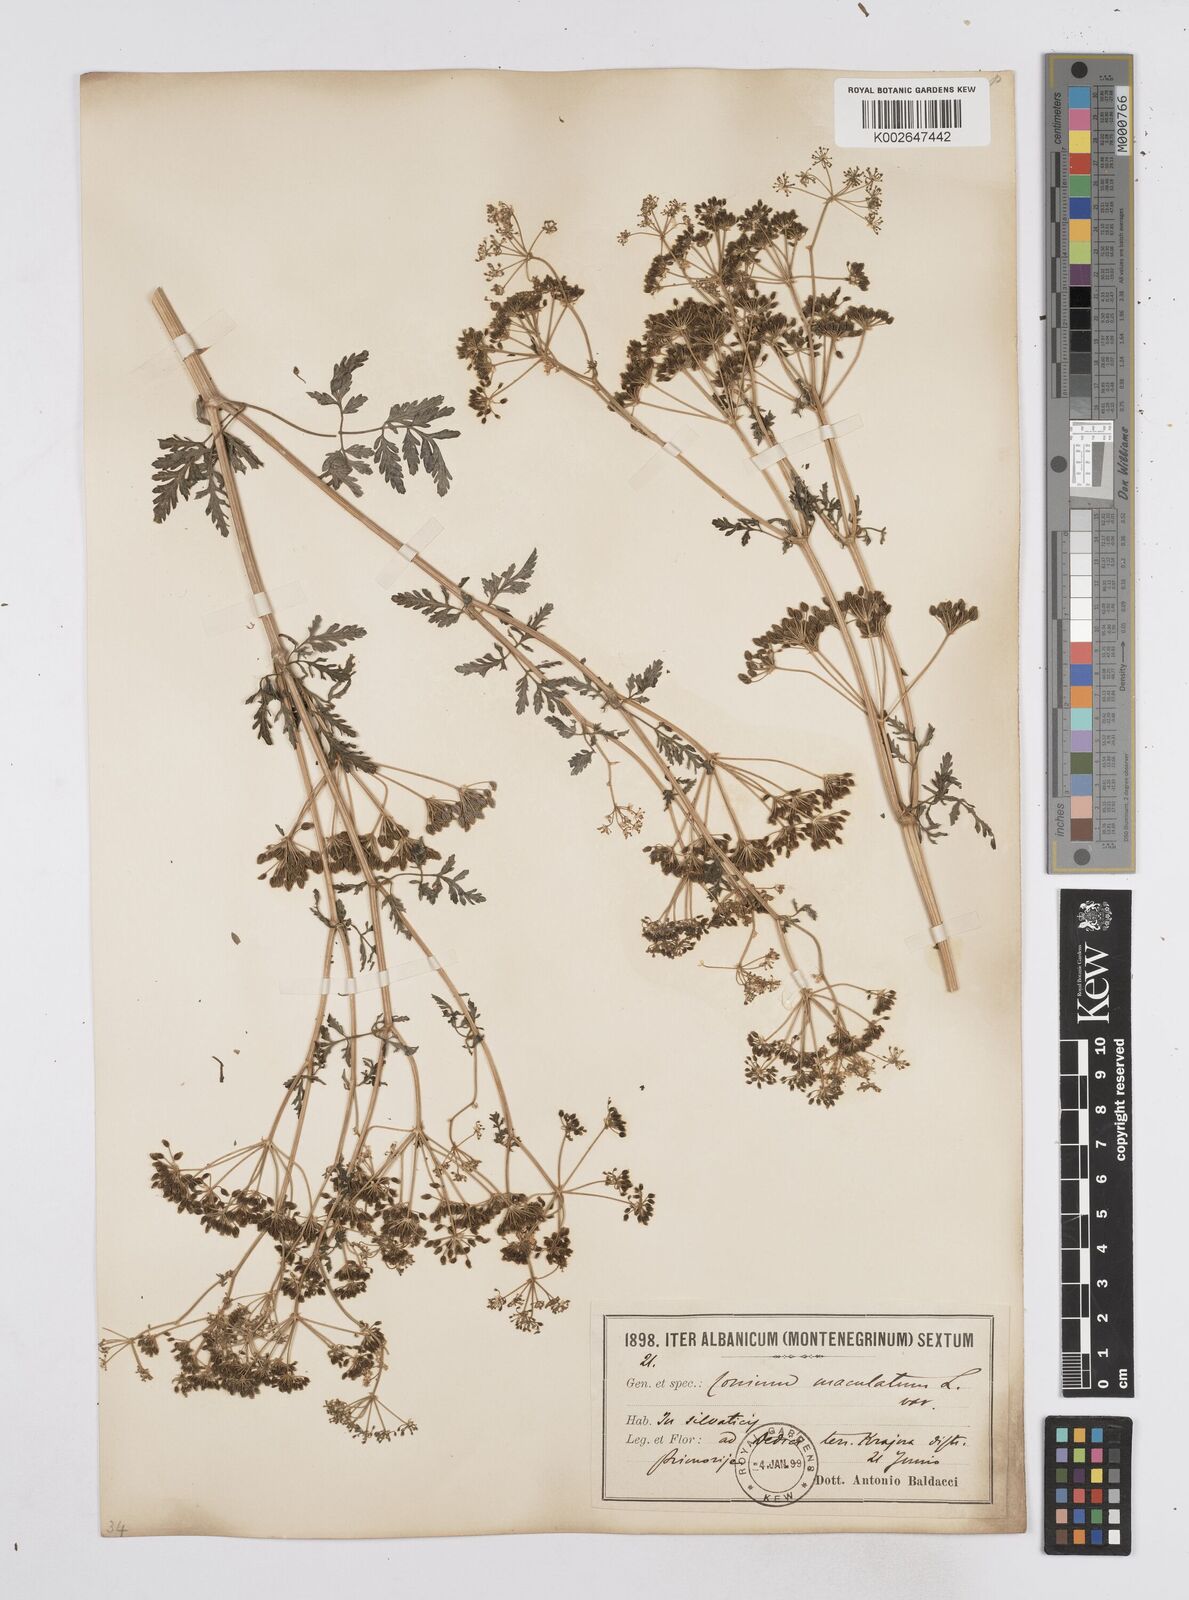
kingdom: Plantae
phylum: Tracheophyta
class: Magnoliopsida
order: Apiales
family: Apiaceae
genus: Conium
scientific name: Conium maculatum
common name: Hemlock
